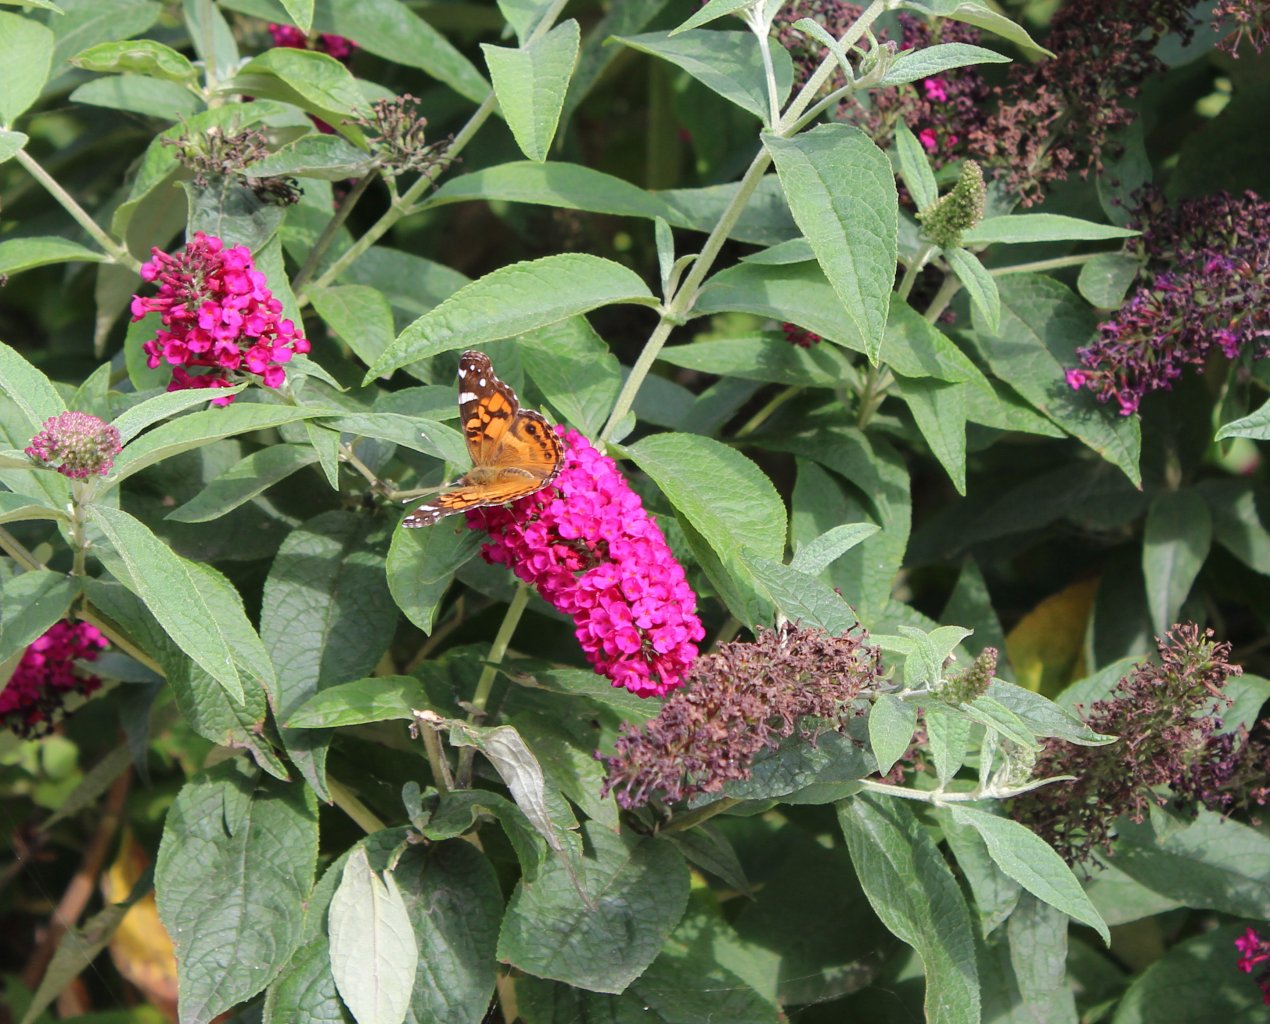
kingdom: Animalia
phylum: Arthropoda
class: Insecta
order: Lepidoptera
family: Nymphalidae
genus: Vanessa
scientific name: Vanessa cardui
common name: Painted Lady
